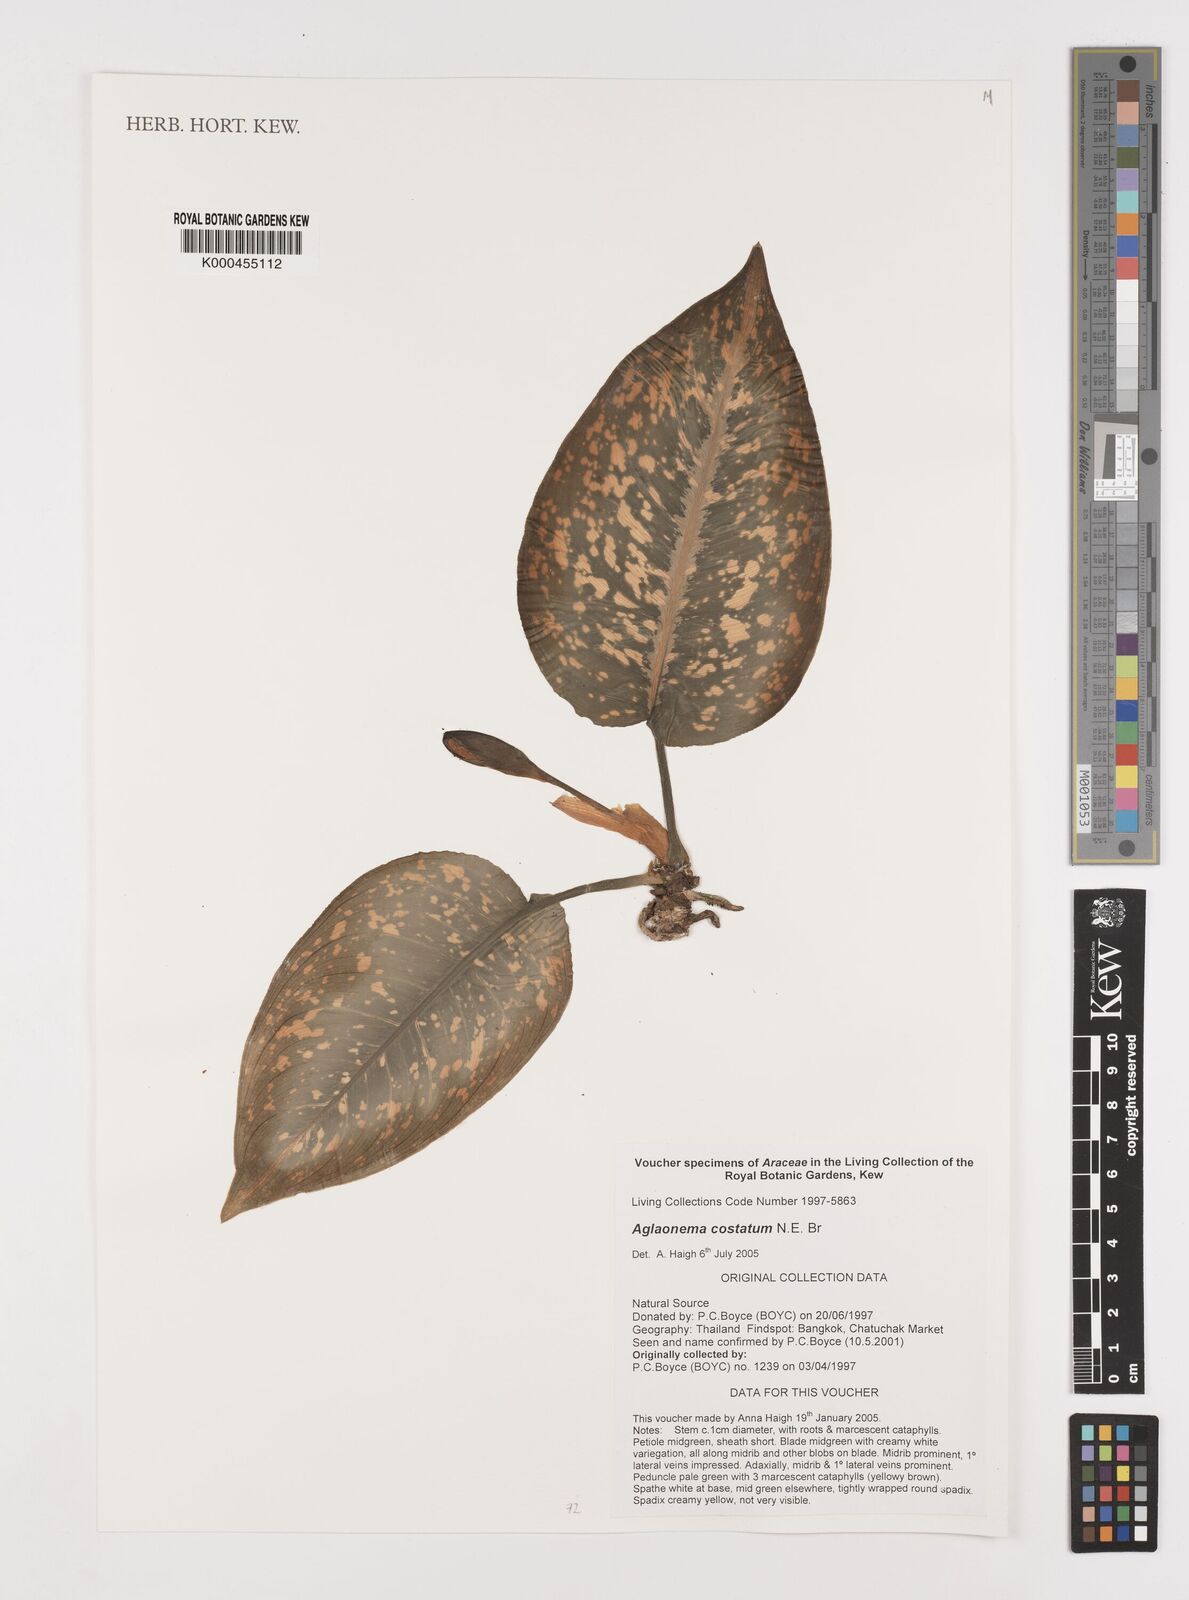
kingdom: Plantae
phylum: Tracheophyta
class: Liliopsida
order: Alismatales
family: Araceae
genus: Aglaonema
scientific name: Aglaonema costatum
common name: Chinese evergreen
